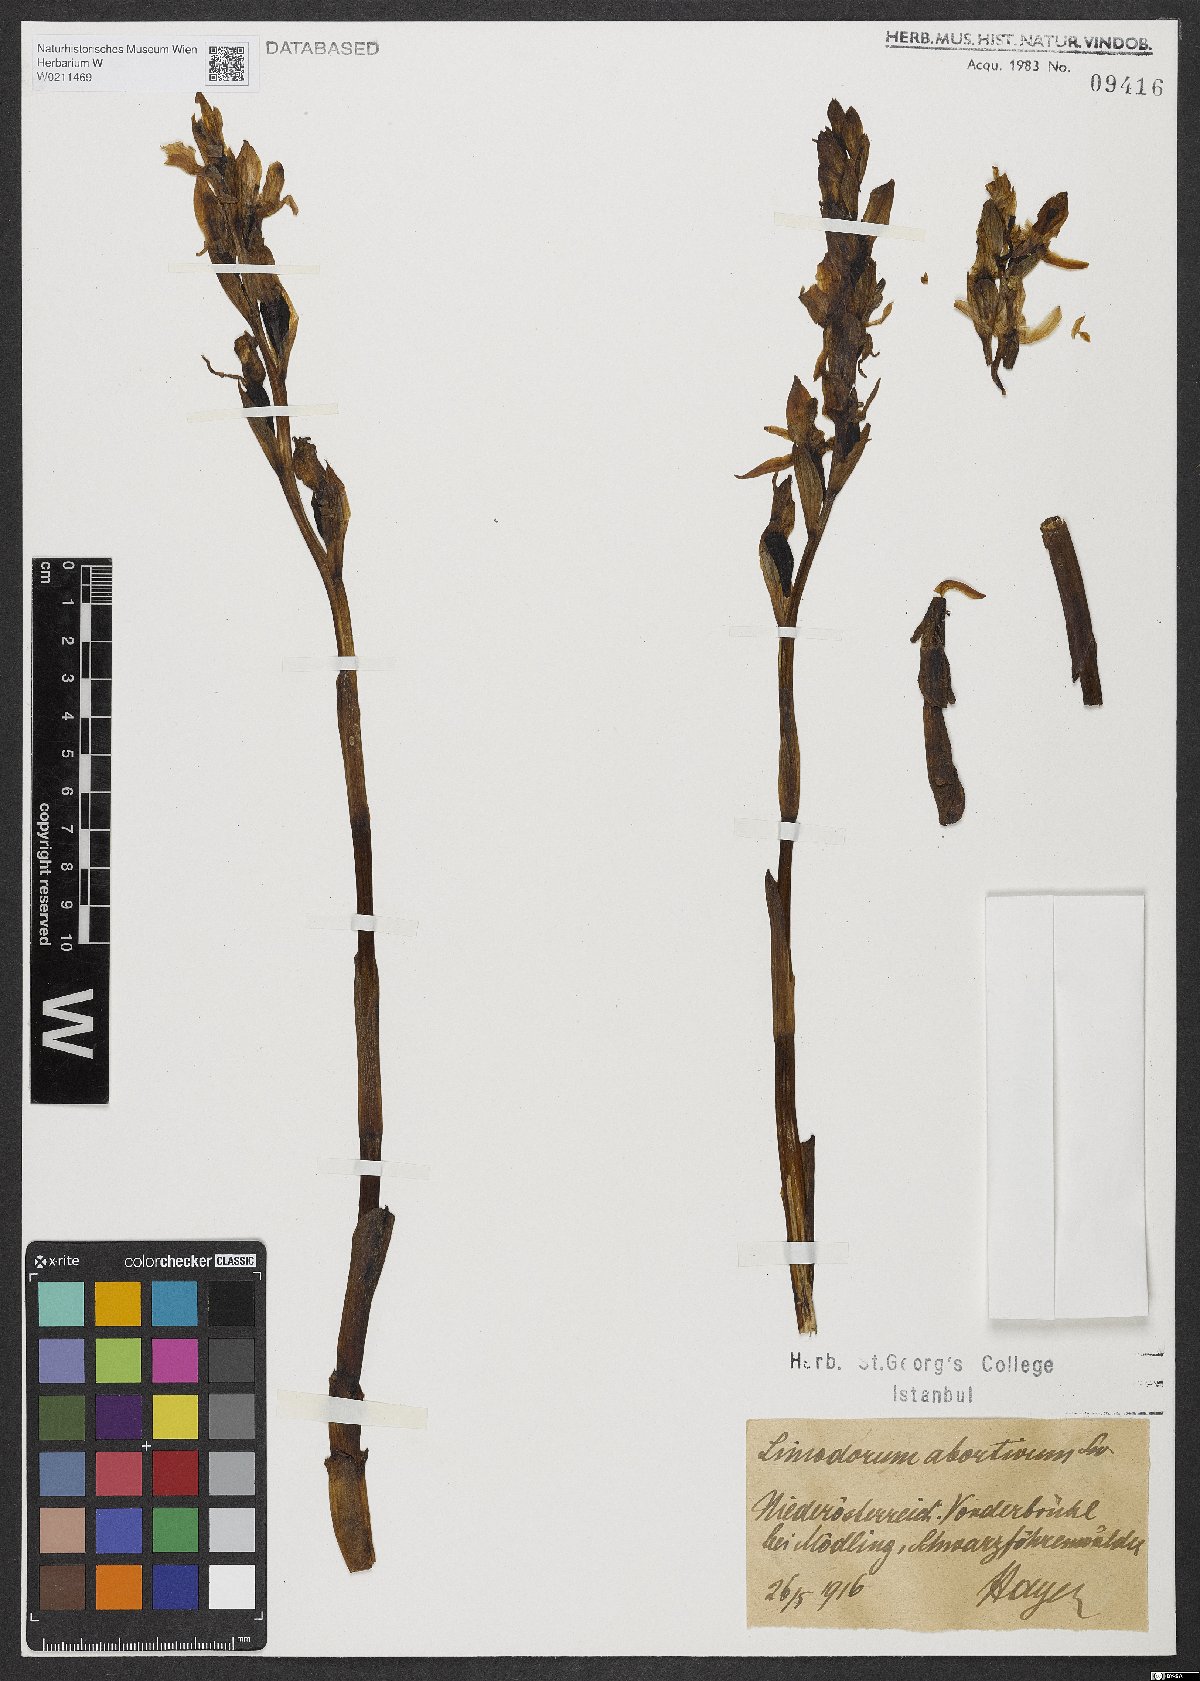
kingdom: Plantae
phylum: Tracheophyta
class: Liliopsida
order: Asparagales
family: Orchidaceae
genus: Limodorum
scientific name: Limodorum abortivum
